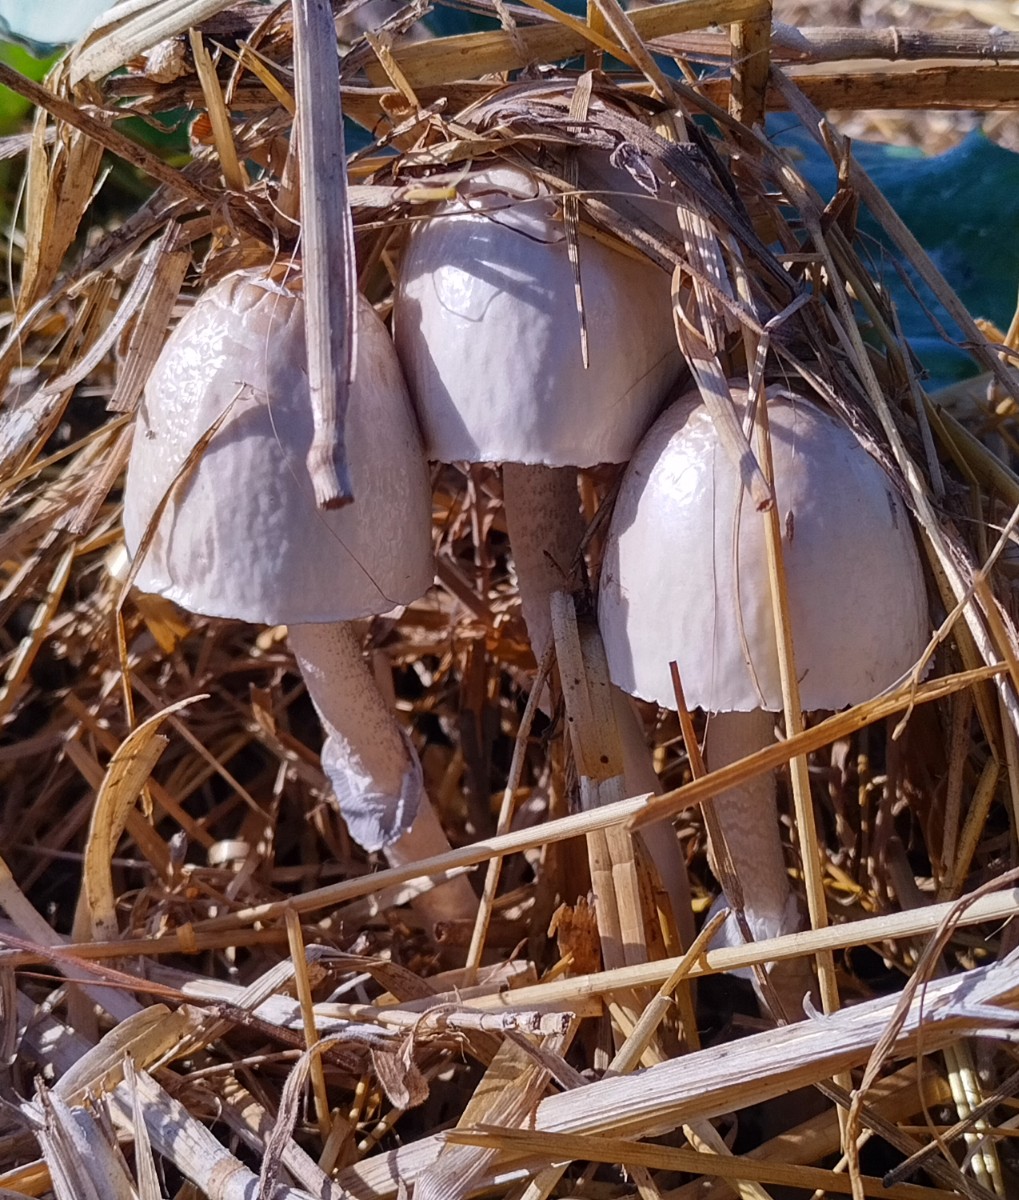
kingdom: Fungi
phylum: Basidiomycota
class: Agaricomycetes
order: Agaricales
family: Bolbitiaceae
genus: Panaeolus
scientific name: Panaeolus semiovatus
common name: ring-glanshat
